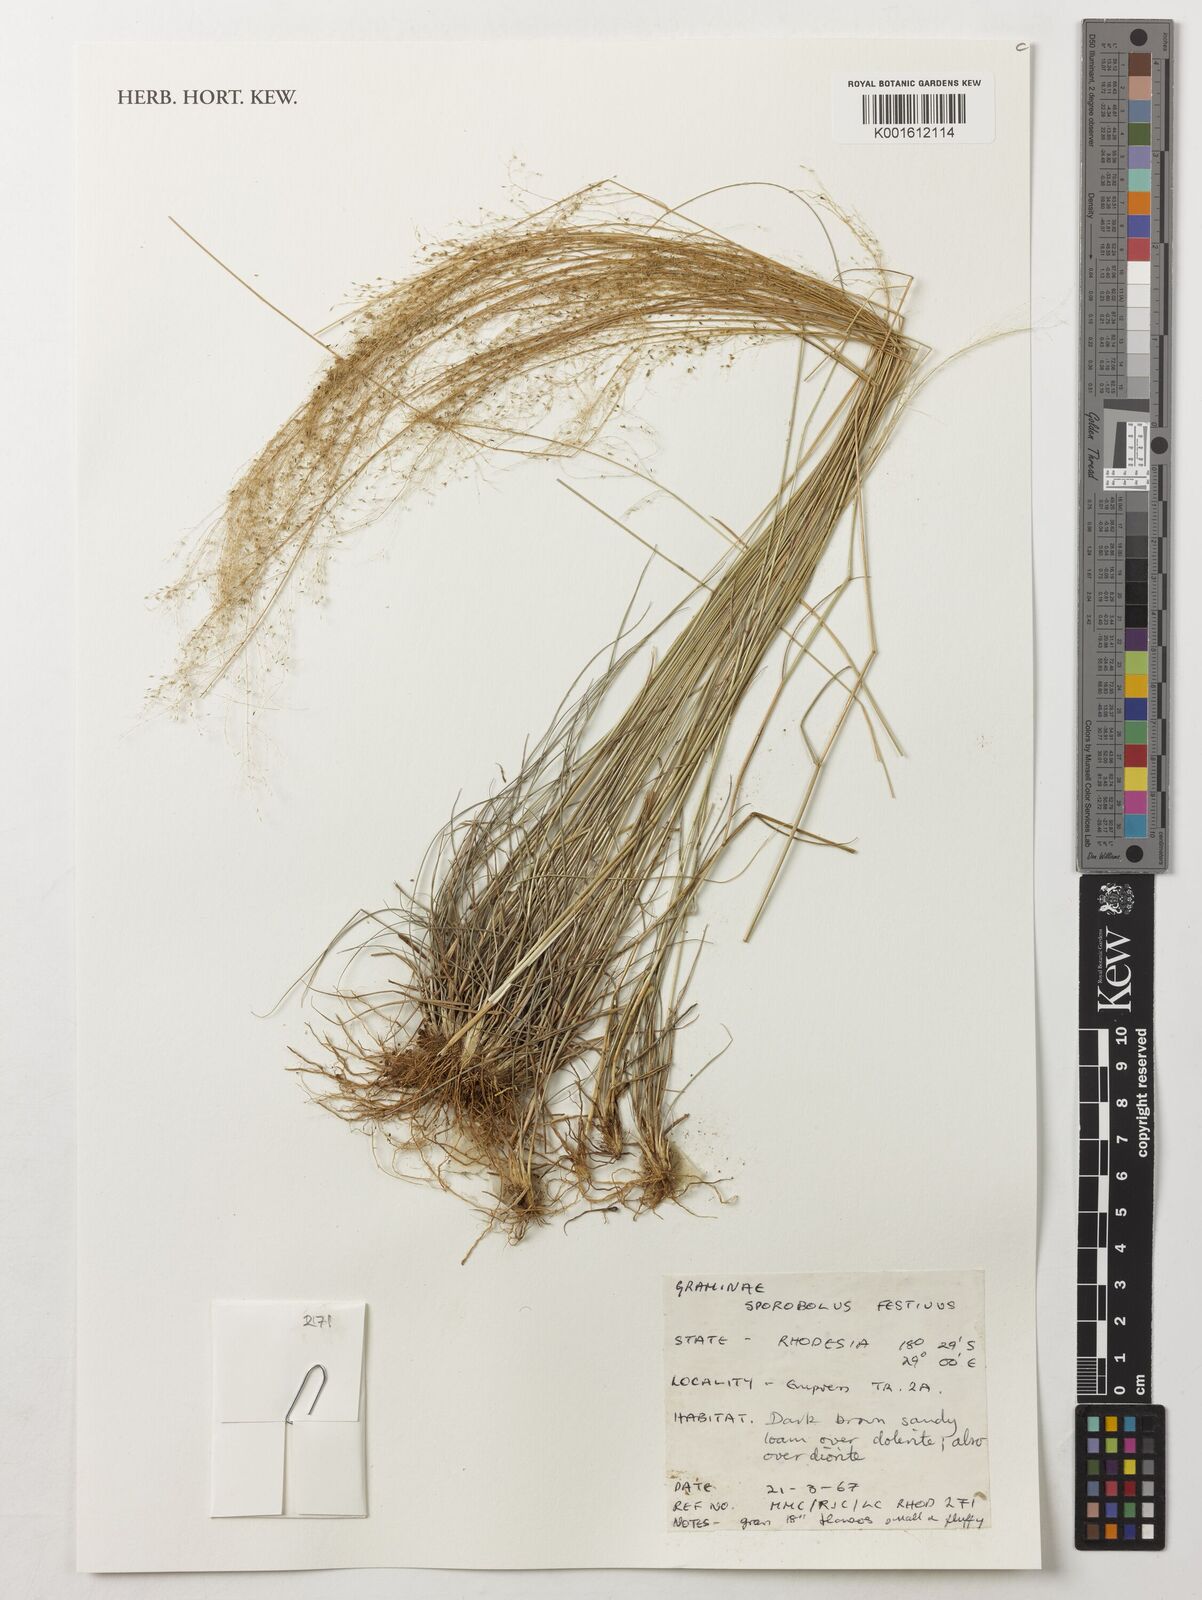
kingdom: Plantae
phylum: Tracheophyta
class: Liliopsida
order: Poales
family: Poaceae
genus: Sporobolus
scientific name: Sporobolus festivus
